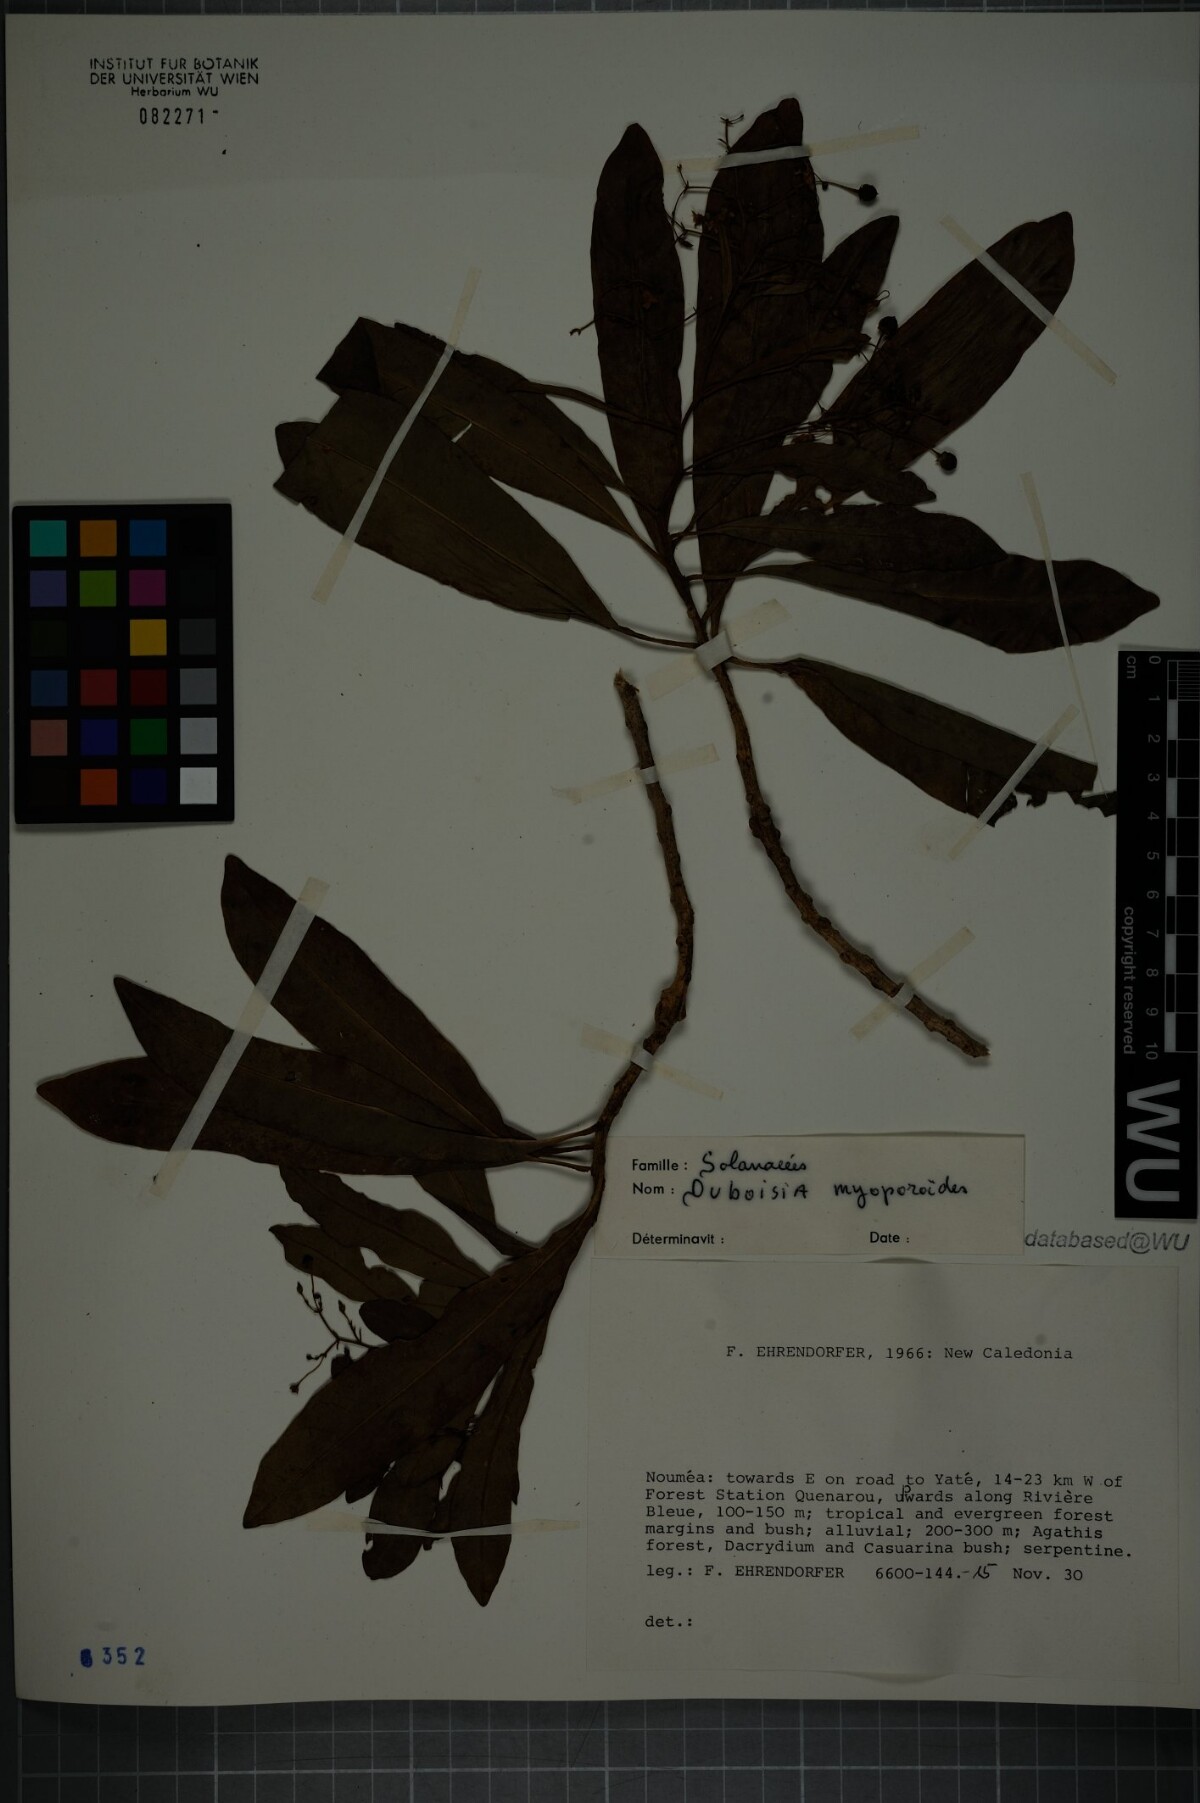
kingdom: Plantae
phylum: Tracheophyta
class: Magnoliopsida
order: Solanales
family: Solanaceae
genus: Duboisia
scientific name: Duboisia myoporoides
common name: Corkwoodtree
